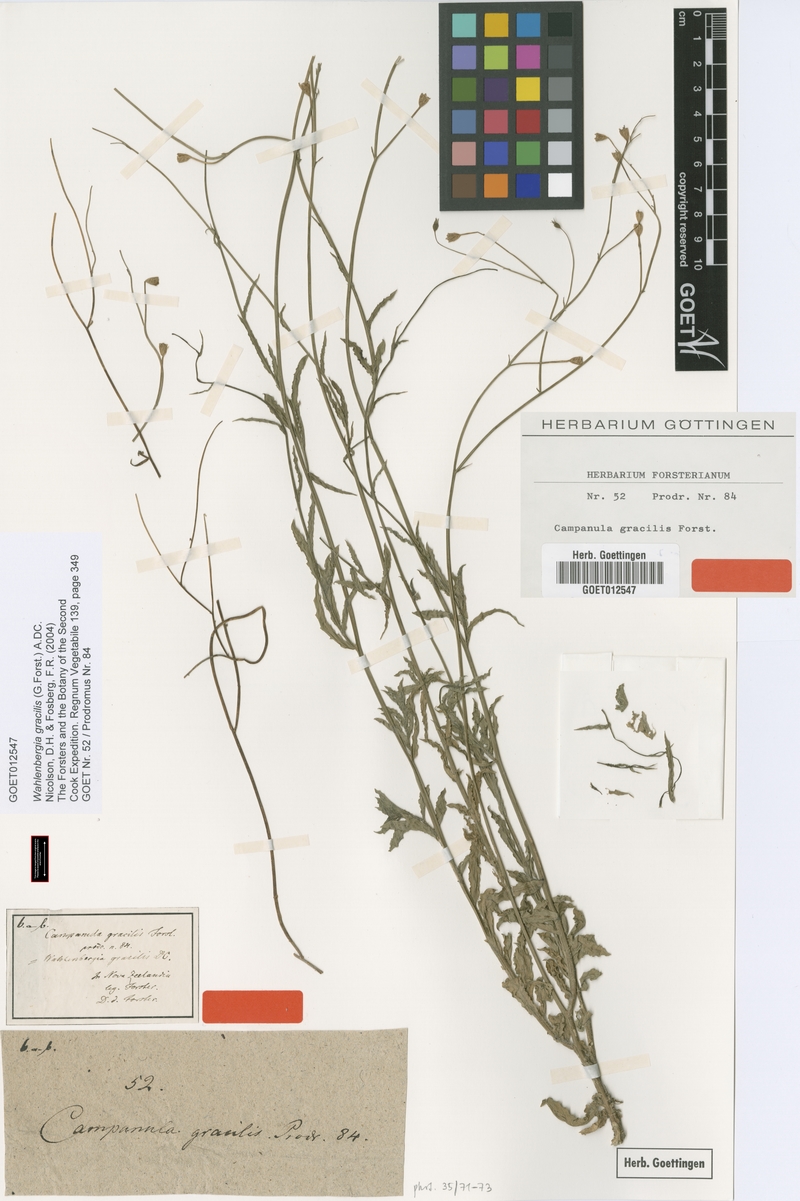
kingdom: Plantae
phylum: Tracheophyta
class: Magnoliopsida
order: Asterales
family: Campanulaceae
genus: Wahlenbergia
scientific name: Wahlenbergia gracilis
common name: Harebell
